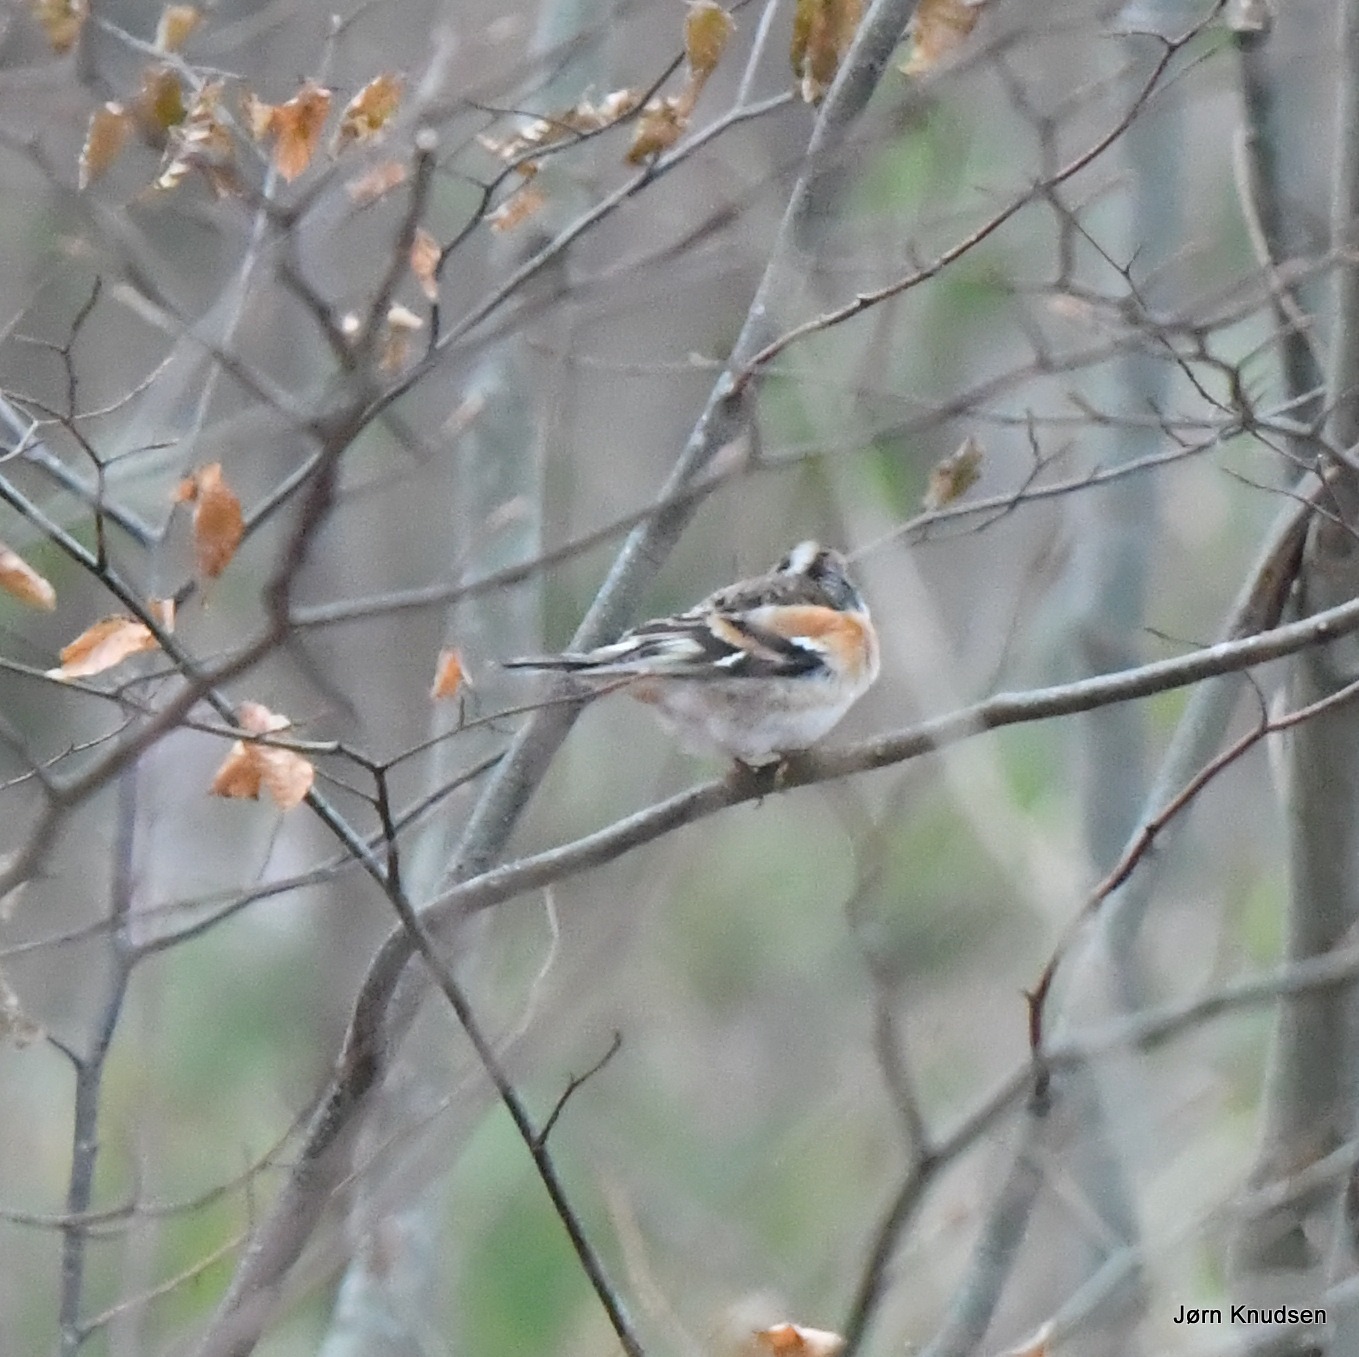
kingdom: Animalia
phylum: Chordata
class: Aves
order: Passeriformes
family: Fringillidae
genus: Fringilla
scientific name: Fringilla montifringilla
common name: Kvækerfinke
